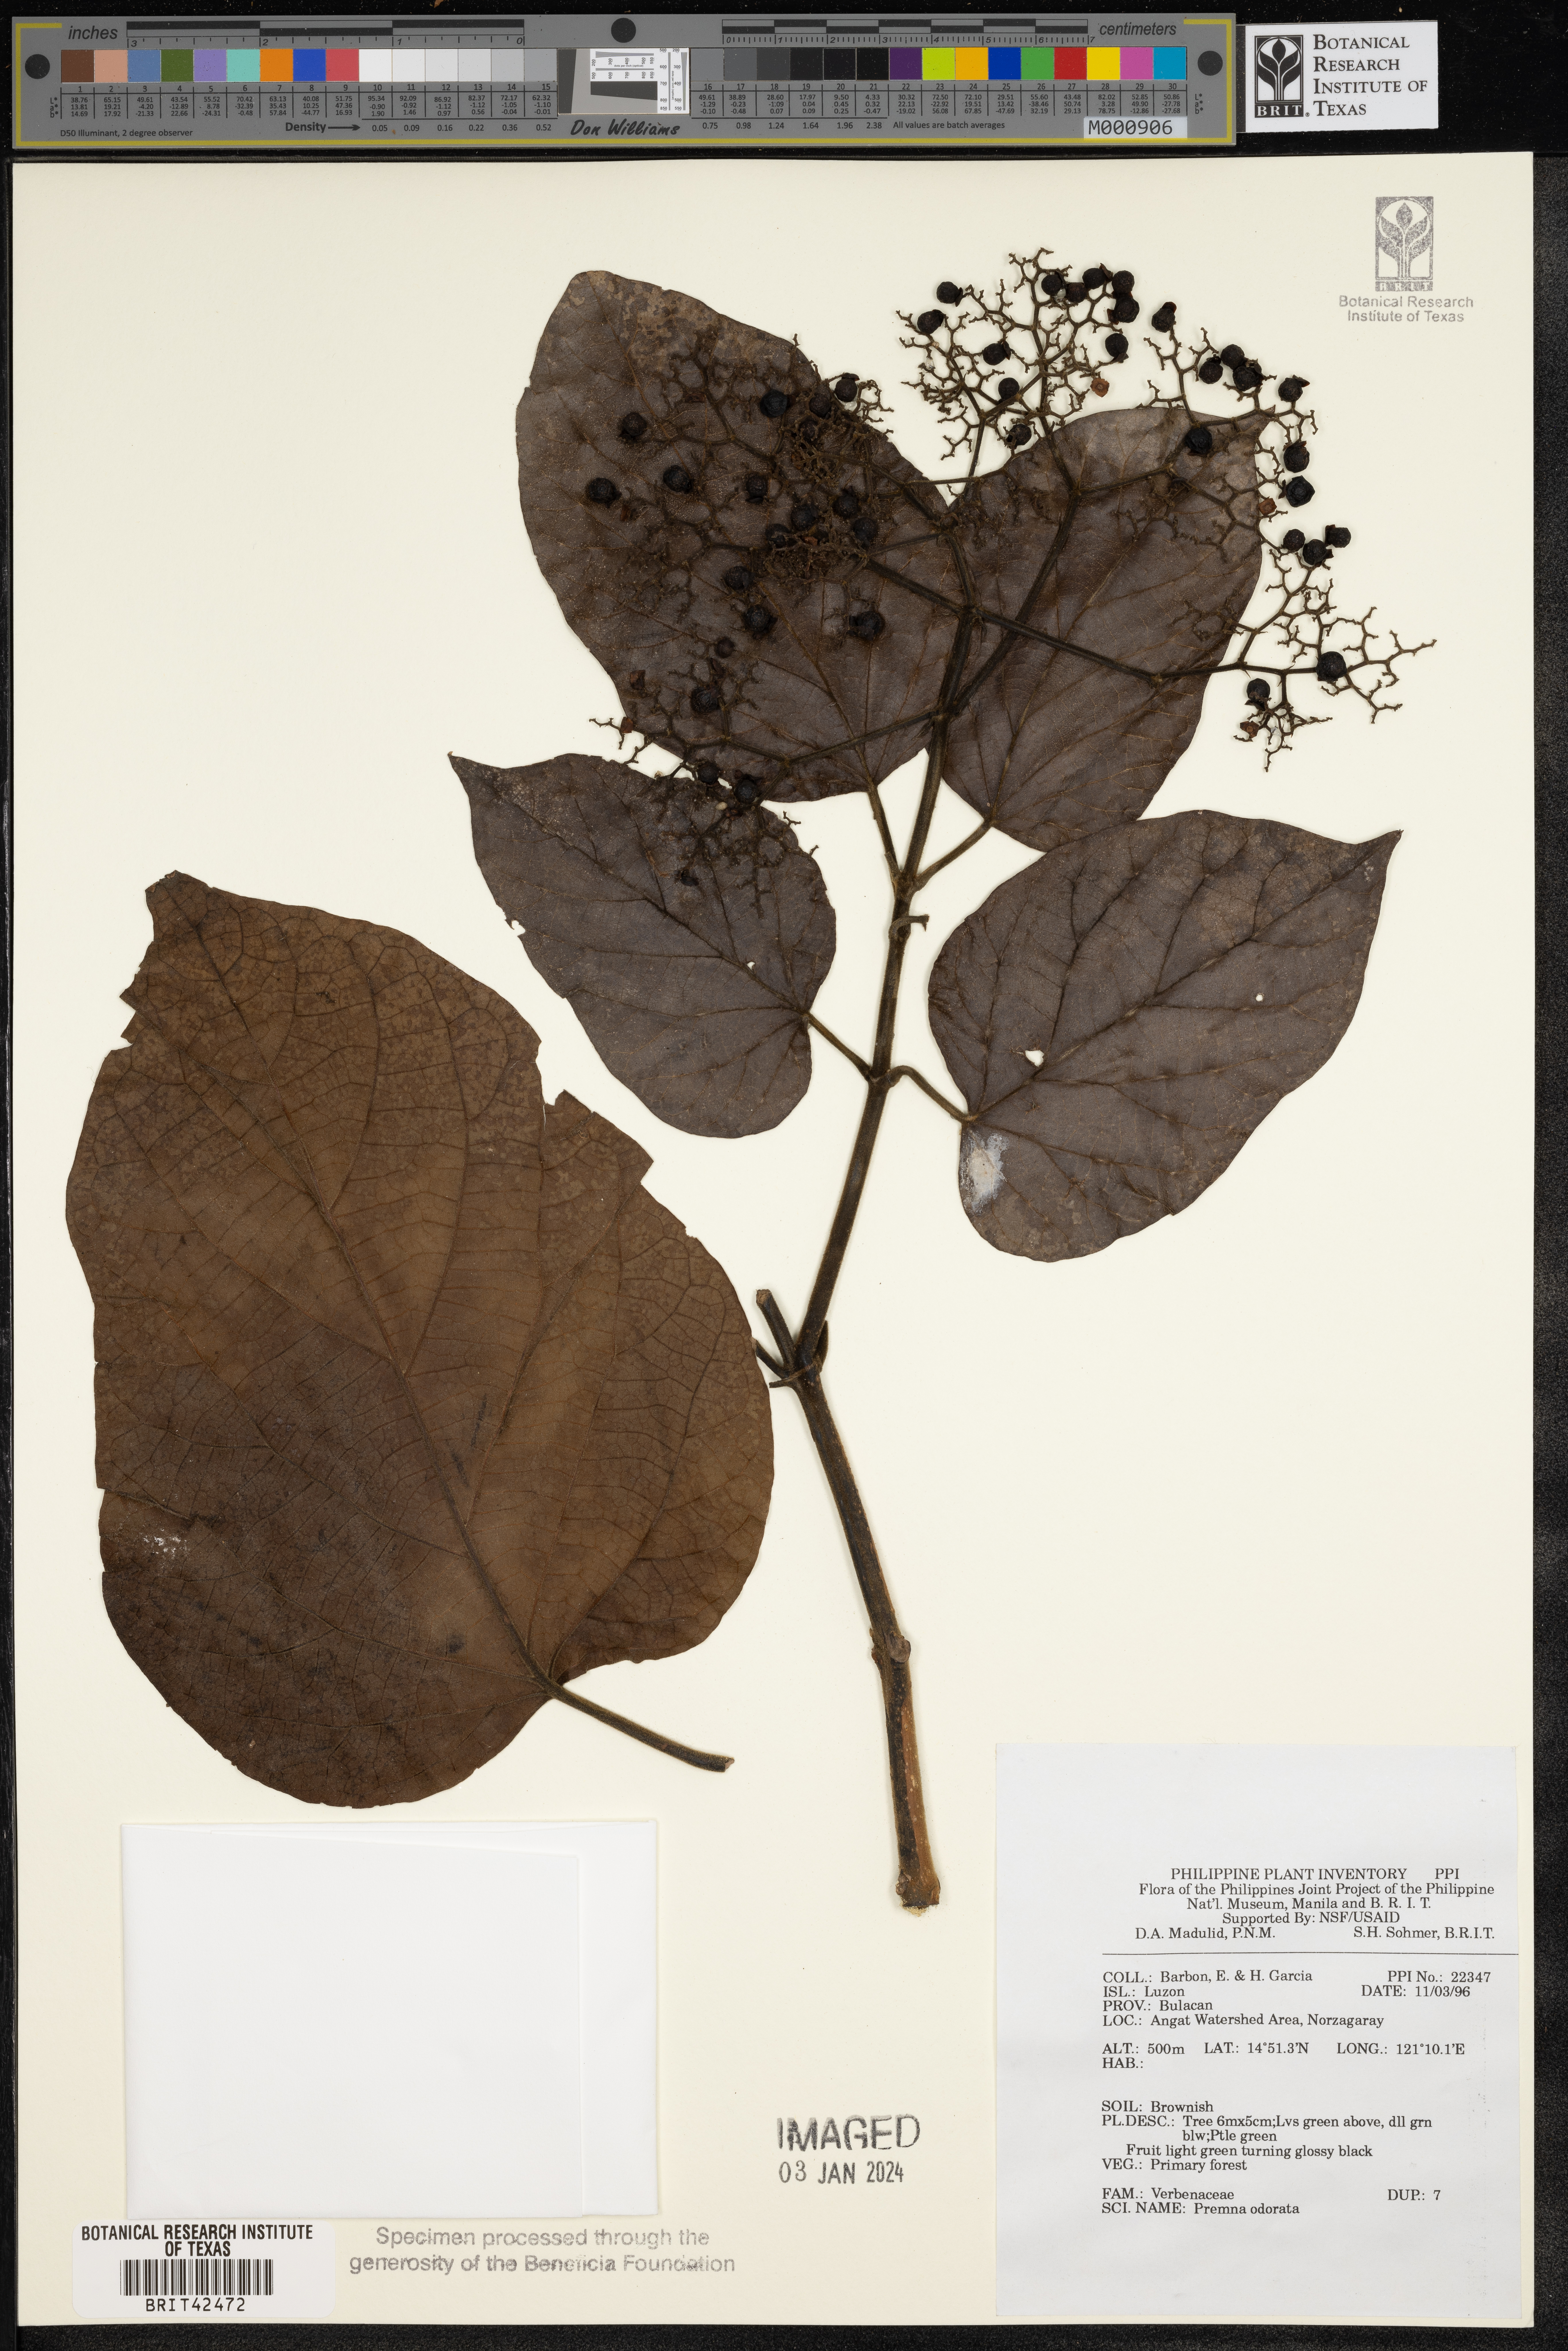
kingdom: Plantae
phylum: Tracheophyta
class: Magnoliopsida
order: Lamiales
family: Lamiaceae
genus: Premna
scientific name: Premna odorata
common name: Fragrant premna
